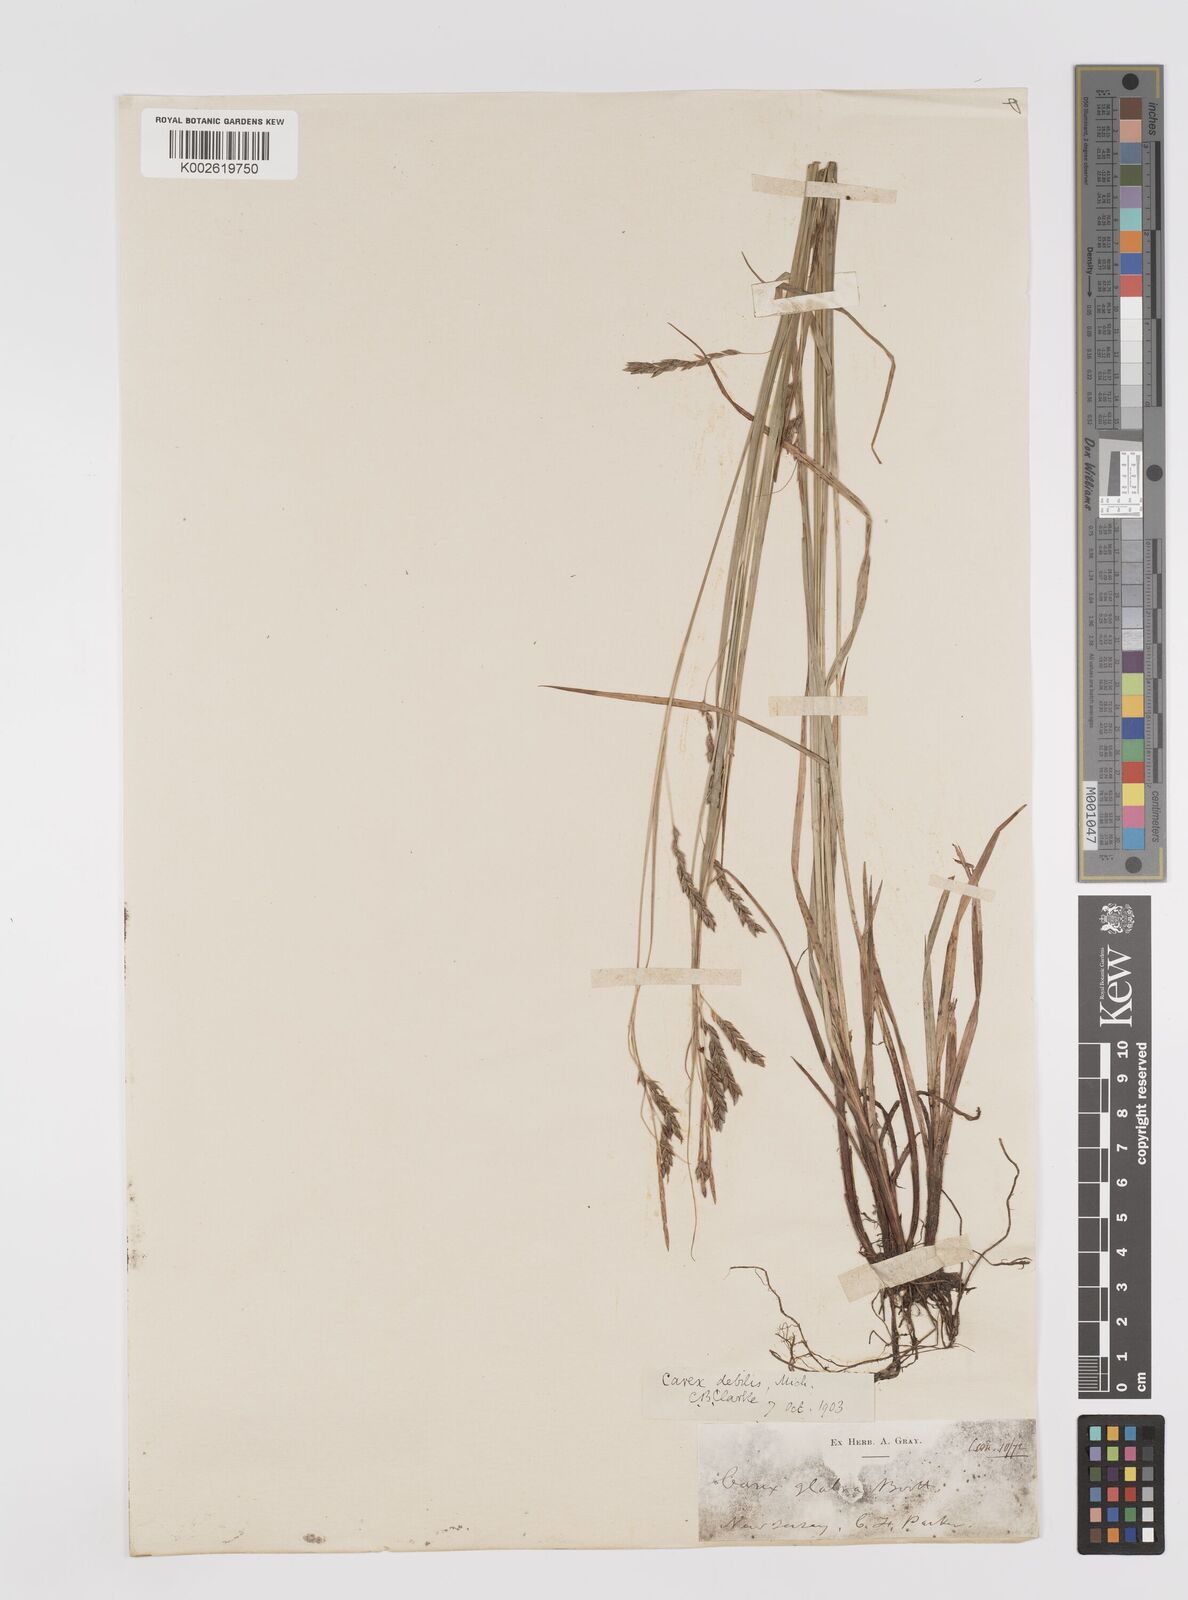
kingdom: Plantae
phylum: Tracheophyta
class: Liliopsida
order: Poales
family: Cyperaceae
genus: Carex
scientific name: Carex venusta
